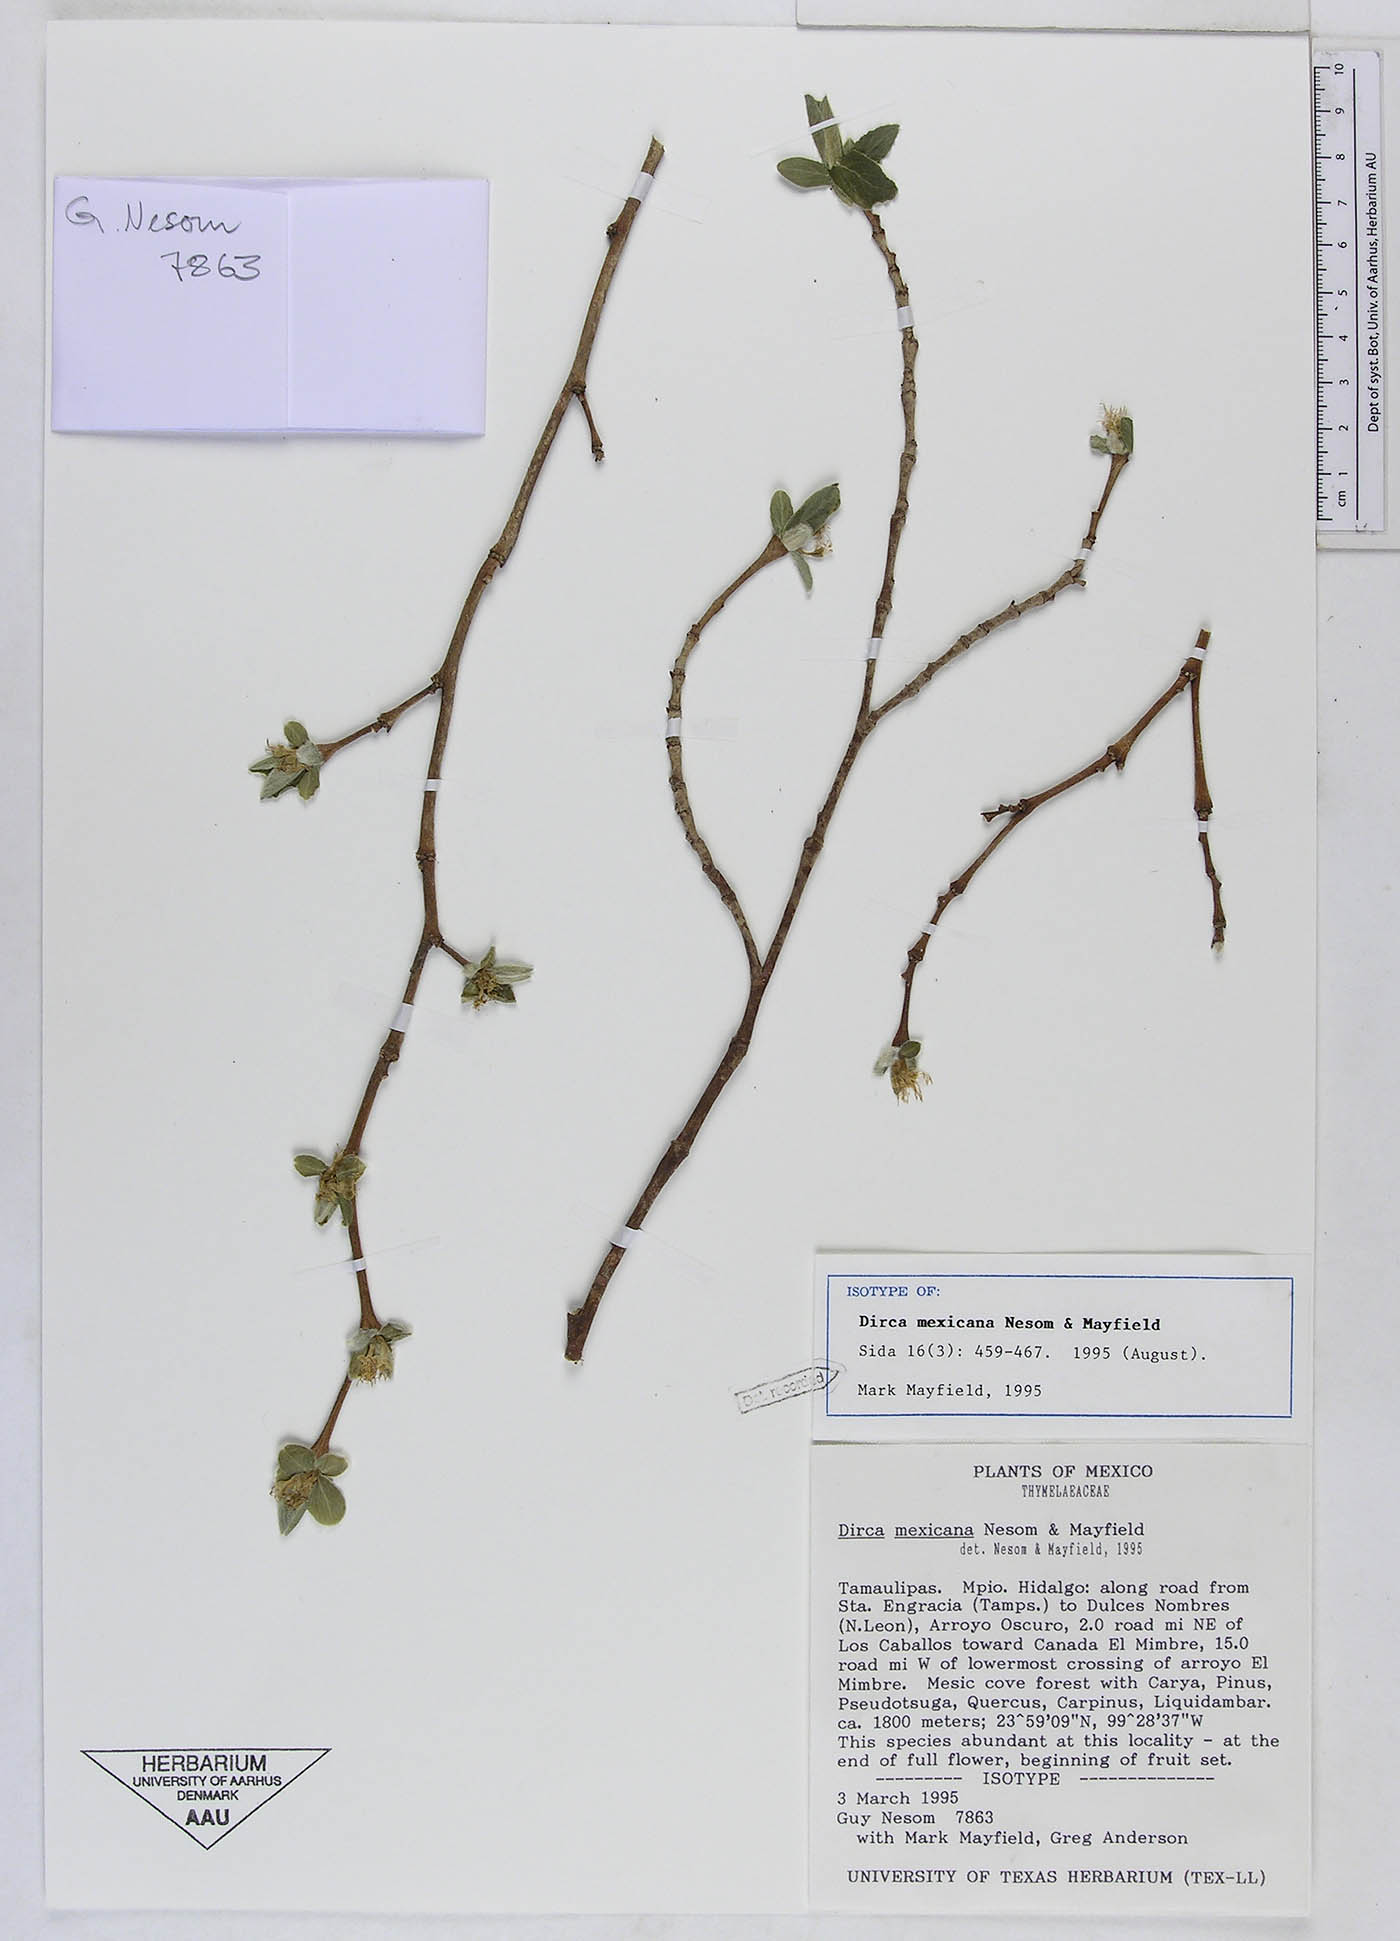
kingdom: Plantae
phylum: Tracheophyta
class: Magnoliopsida
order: Malvales
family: Thymelaeaceae
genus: Dirca
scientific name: Dirca mexicana
